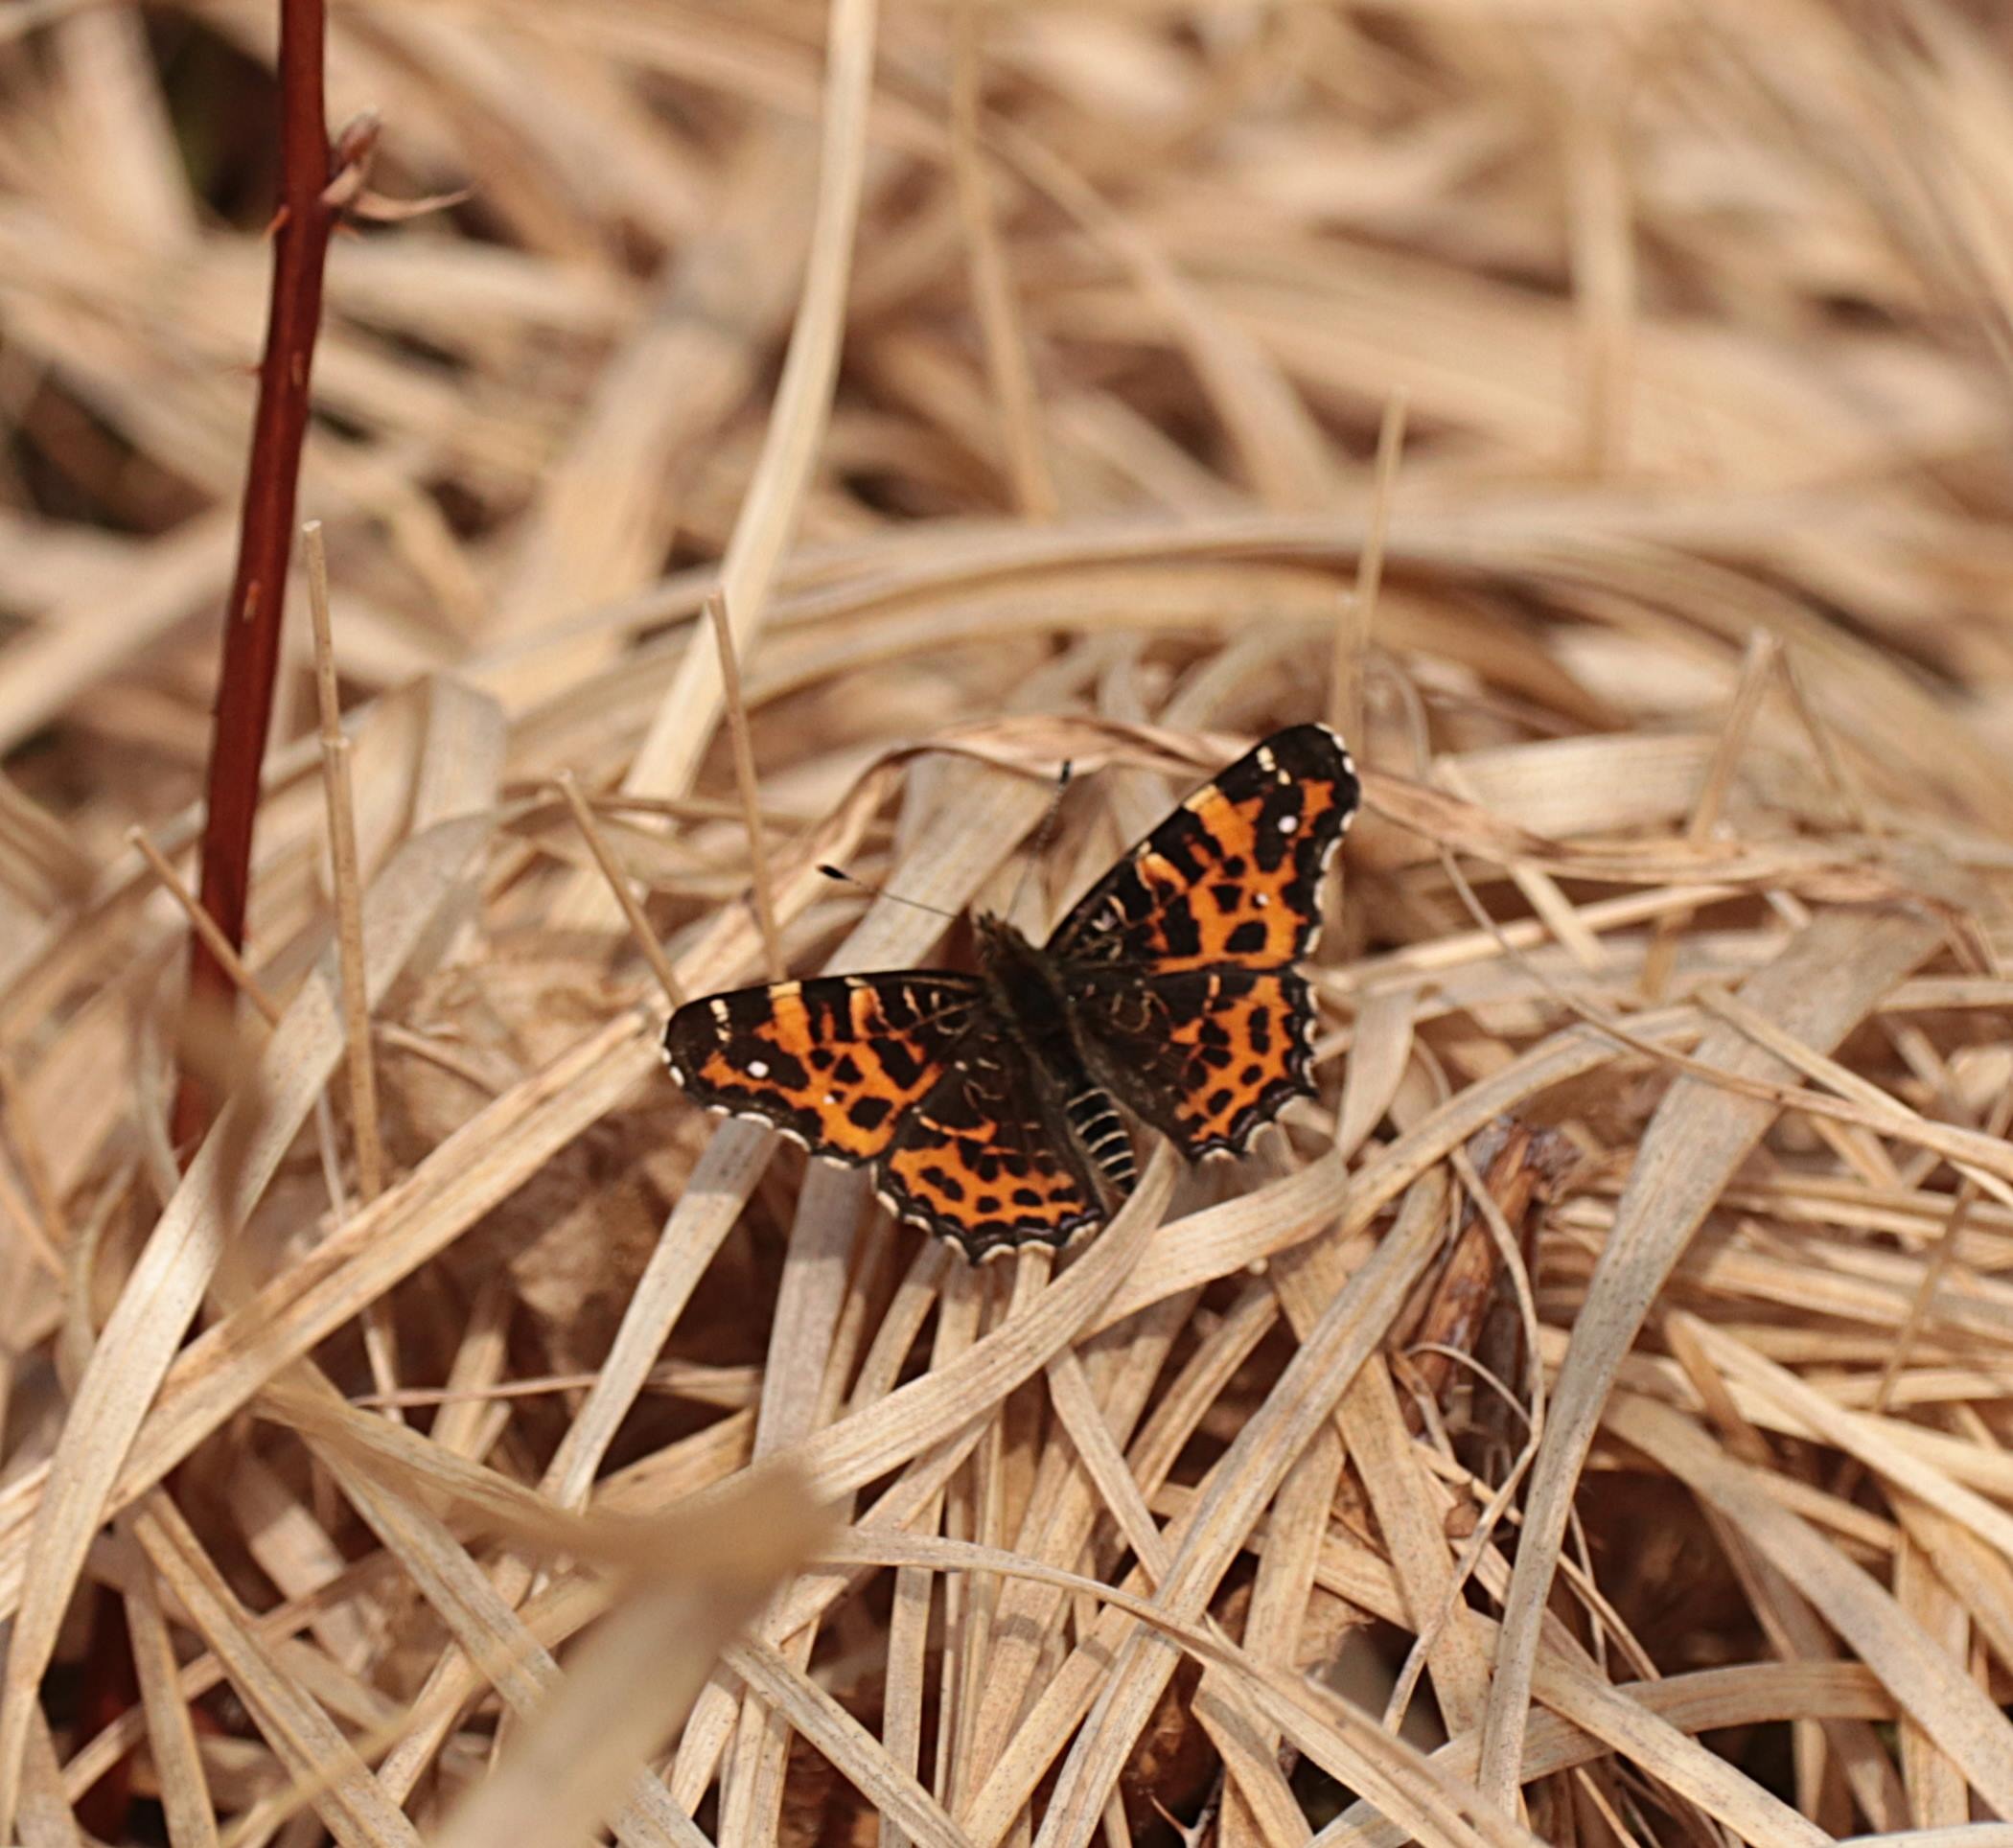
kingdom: Animalia
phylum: Arthropoda
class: Insecta
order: Lepidoptera
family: Nymphalidae
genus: Araschnia
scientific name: Araschnia levana
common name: Nældesommerfugl
